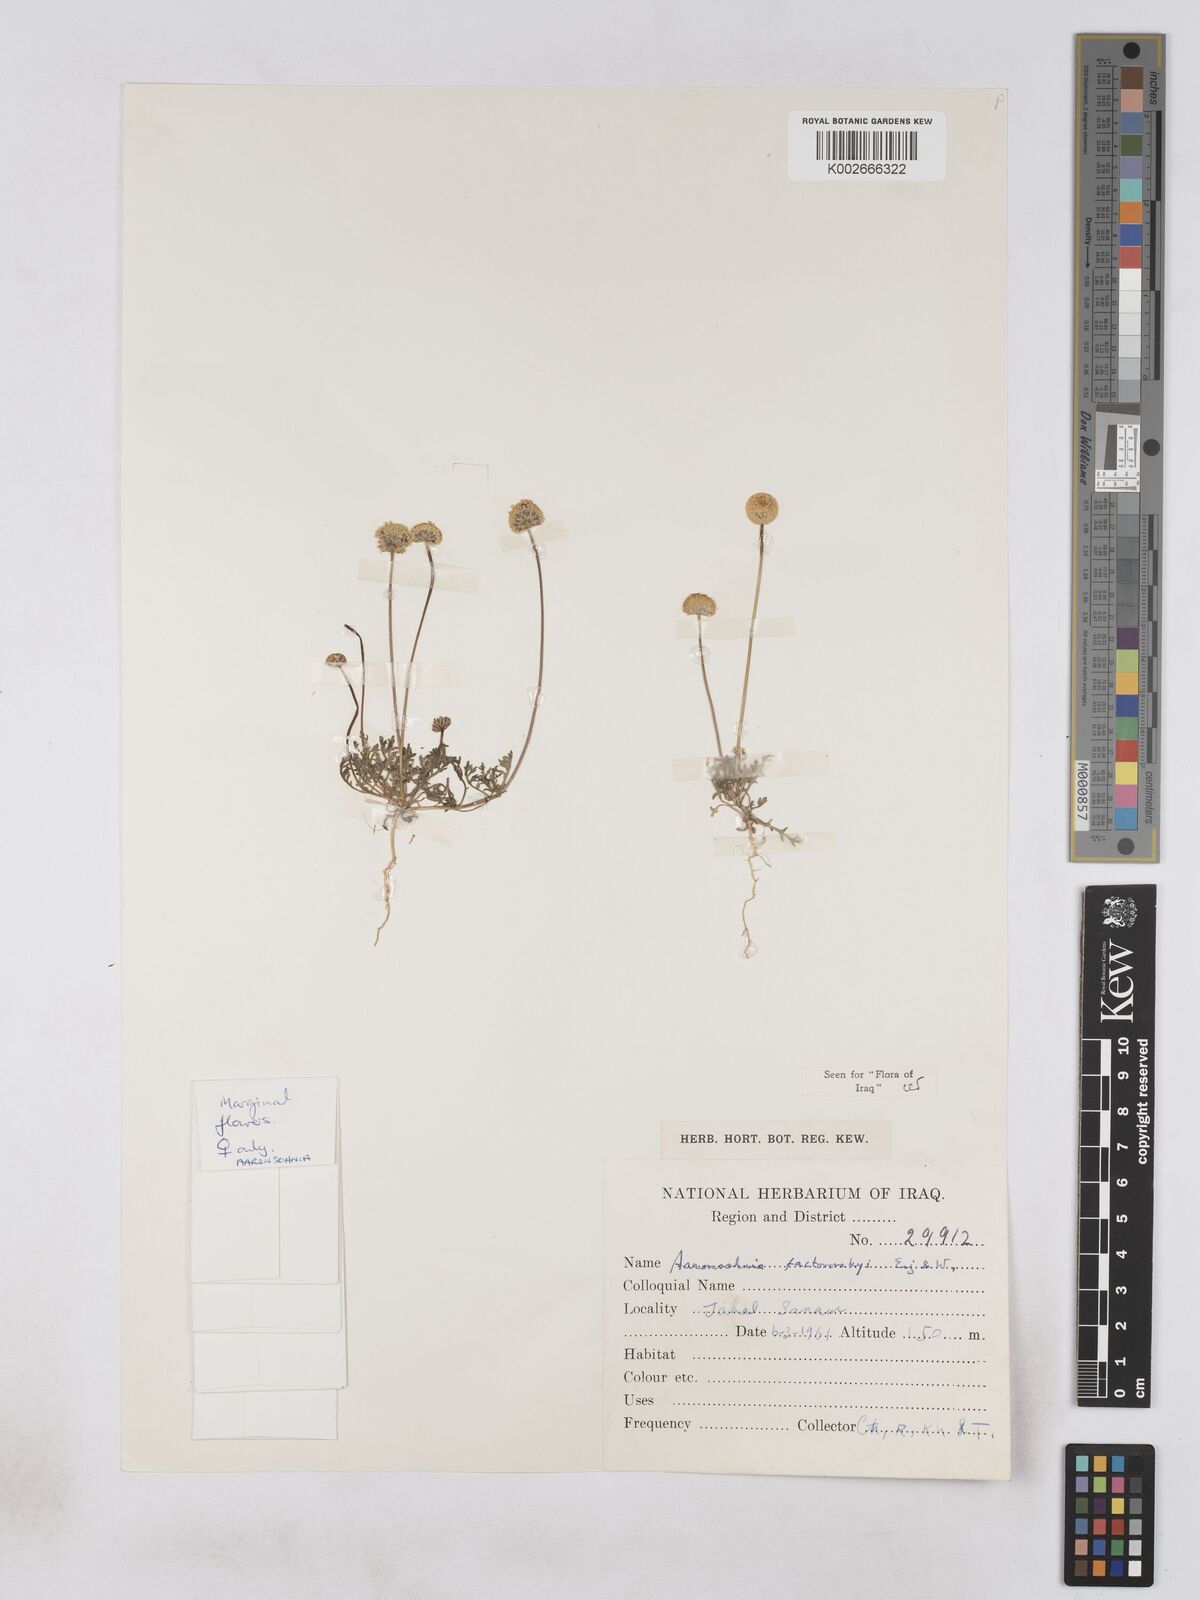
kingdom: Plantae
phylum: Tracheophyta
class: Magnoliopsida
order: Asterales
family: Asteraceae
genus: Otoglyphis
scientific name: Otoglyphis factorovskyi
